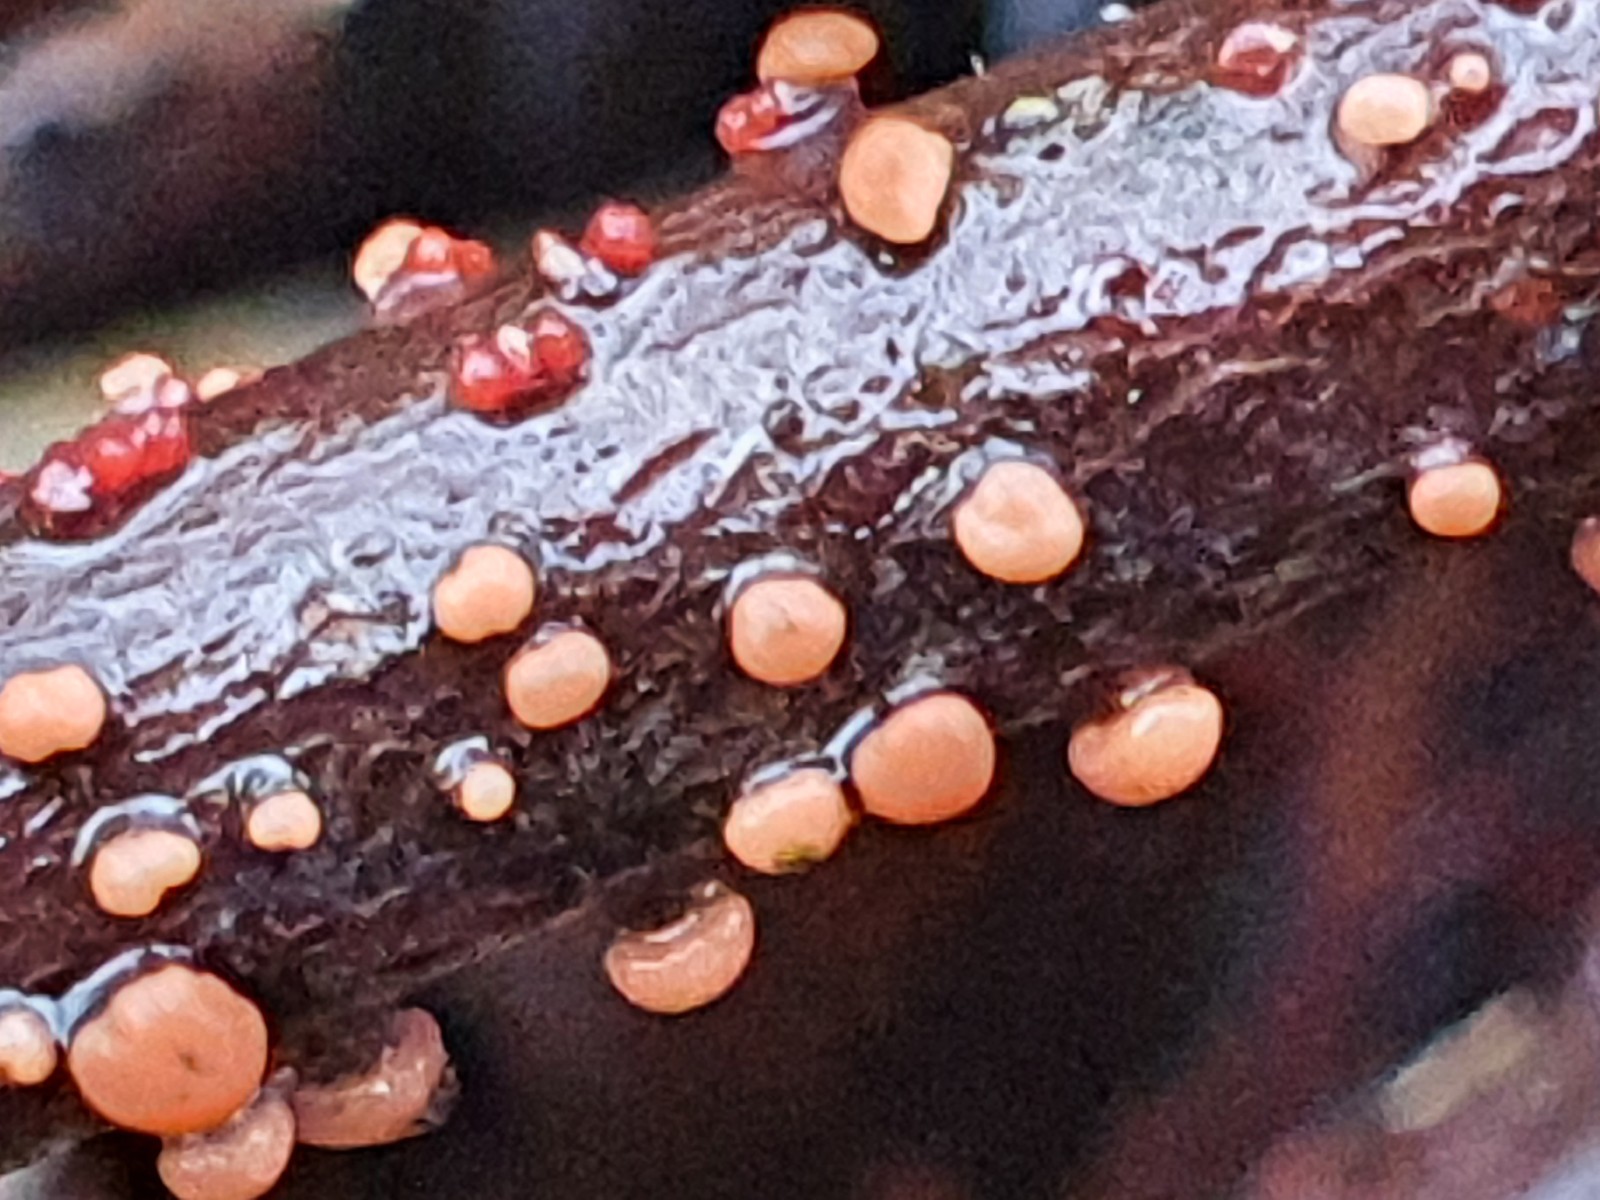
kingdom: Fungi
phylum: Ascomycota
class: Sordariomycetes
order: Hypocreales
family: Nectriaceae
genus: Nectria
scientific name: Nectria cinnabarina
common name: almindelig cinnobersvamp
